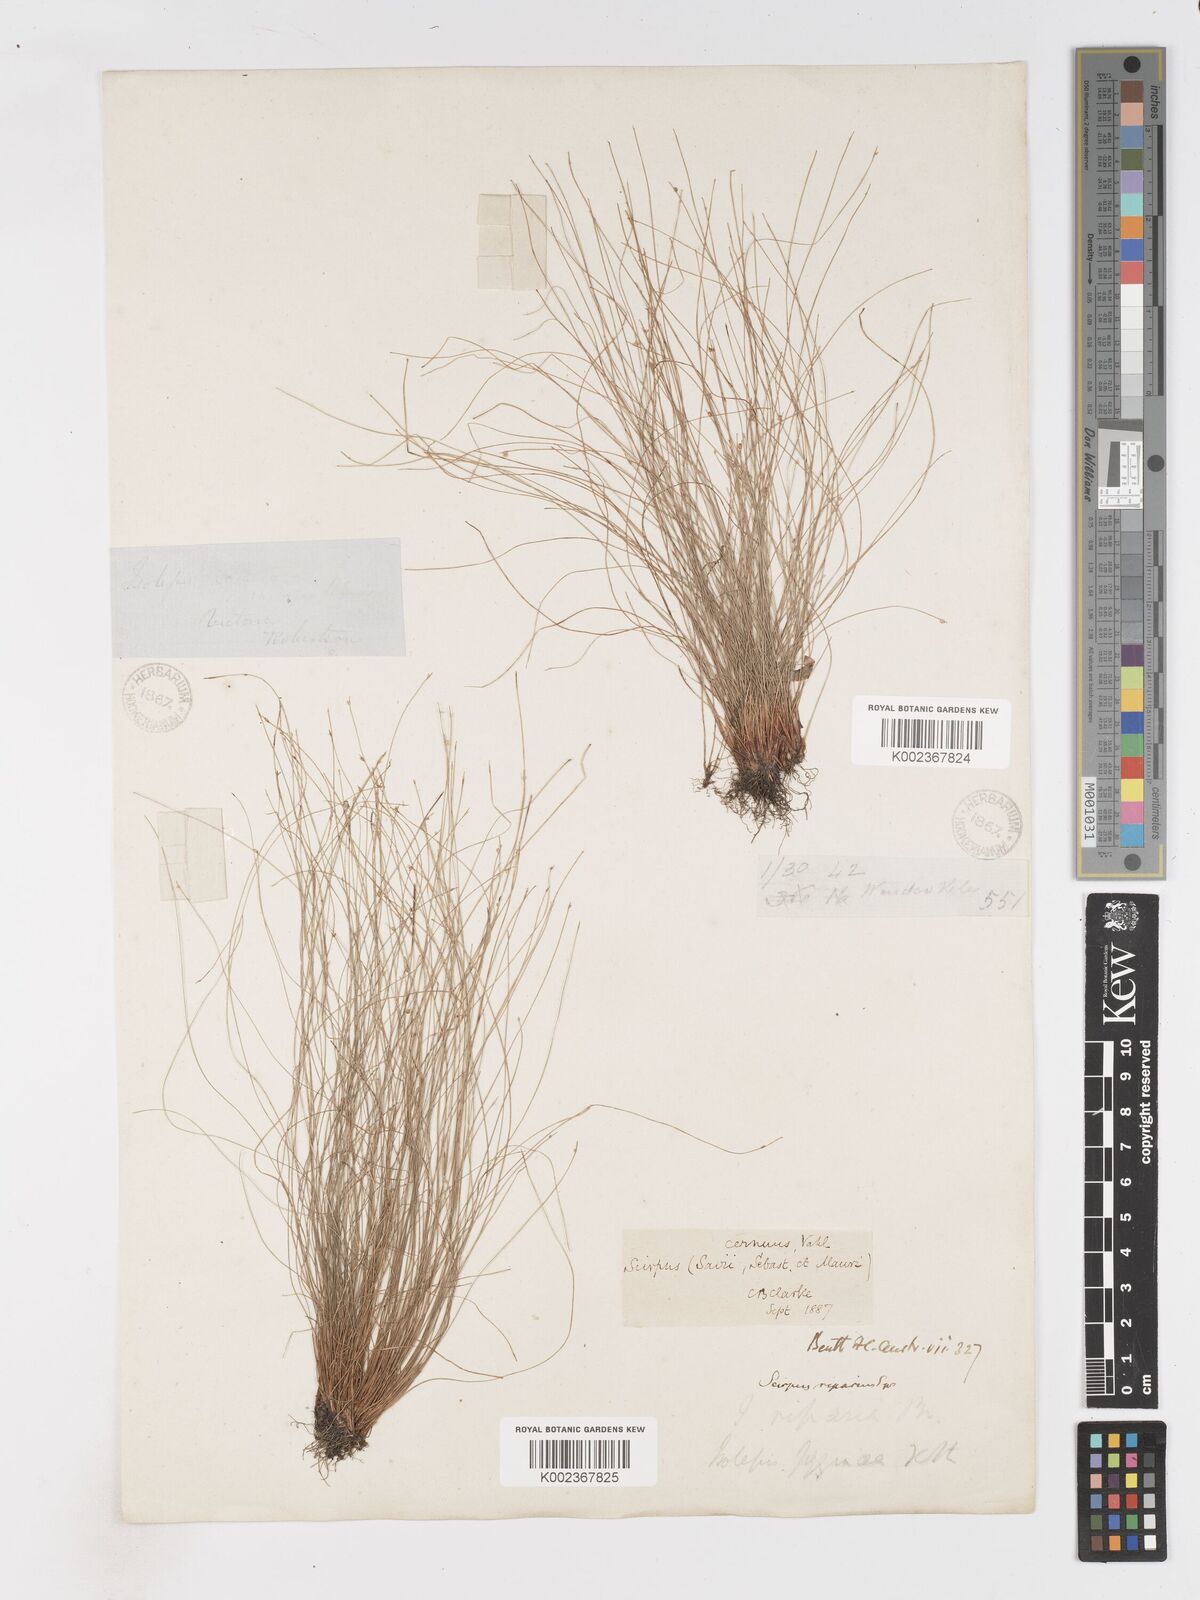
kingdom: Plantae
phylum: Tracheophyta
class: Liliopsida
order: Poales
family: Cyperaceae
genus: Isolepis
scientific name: Isolepis cernua
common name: Slender club-rush
